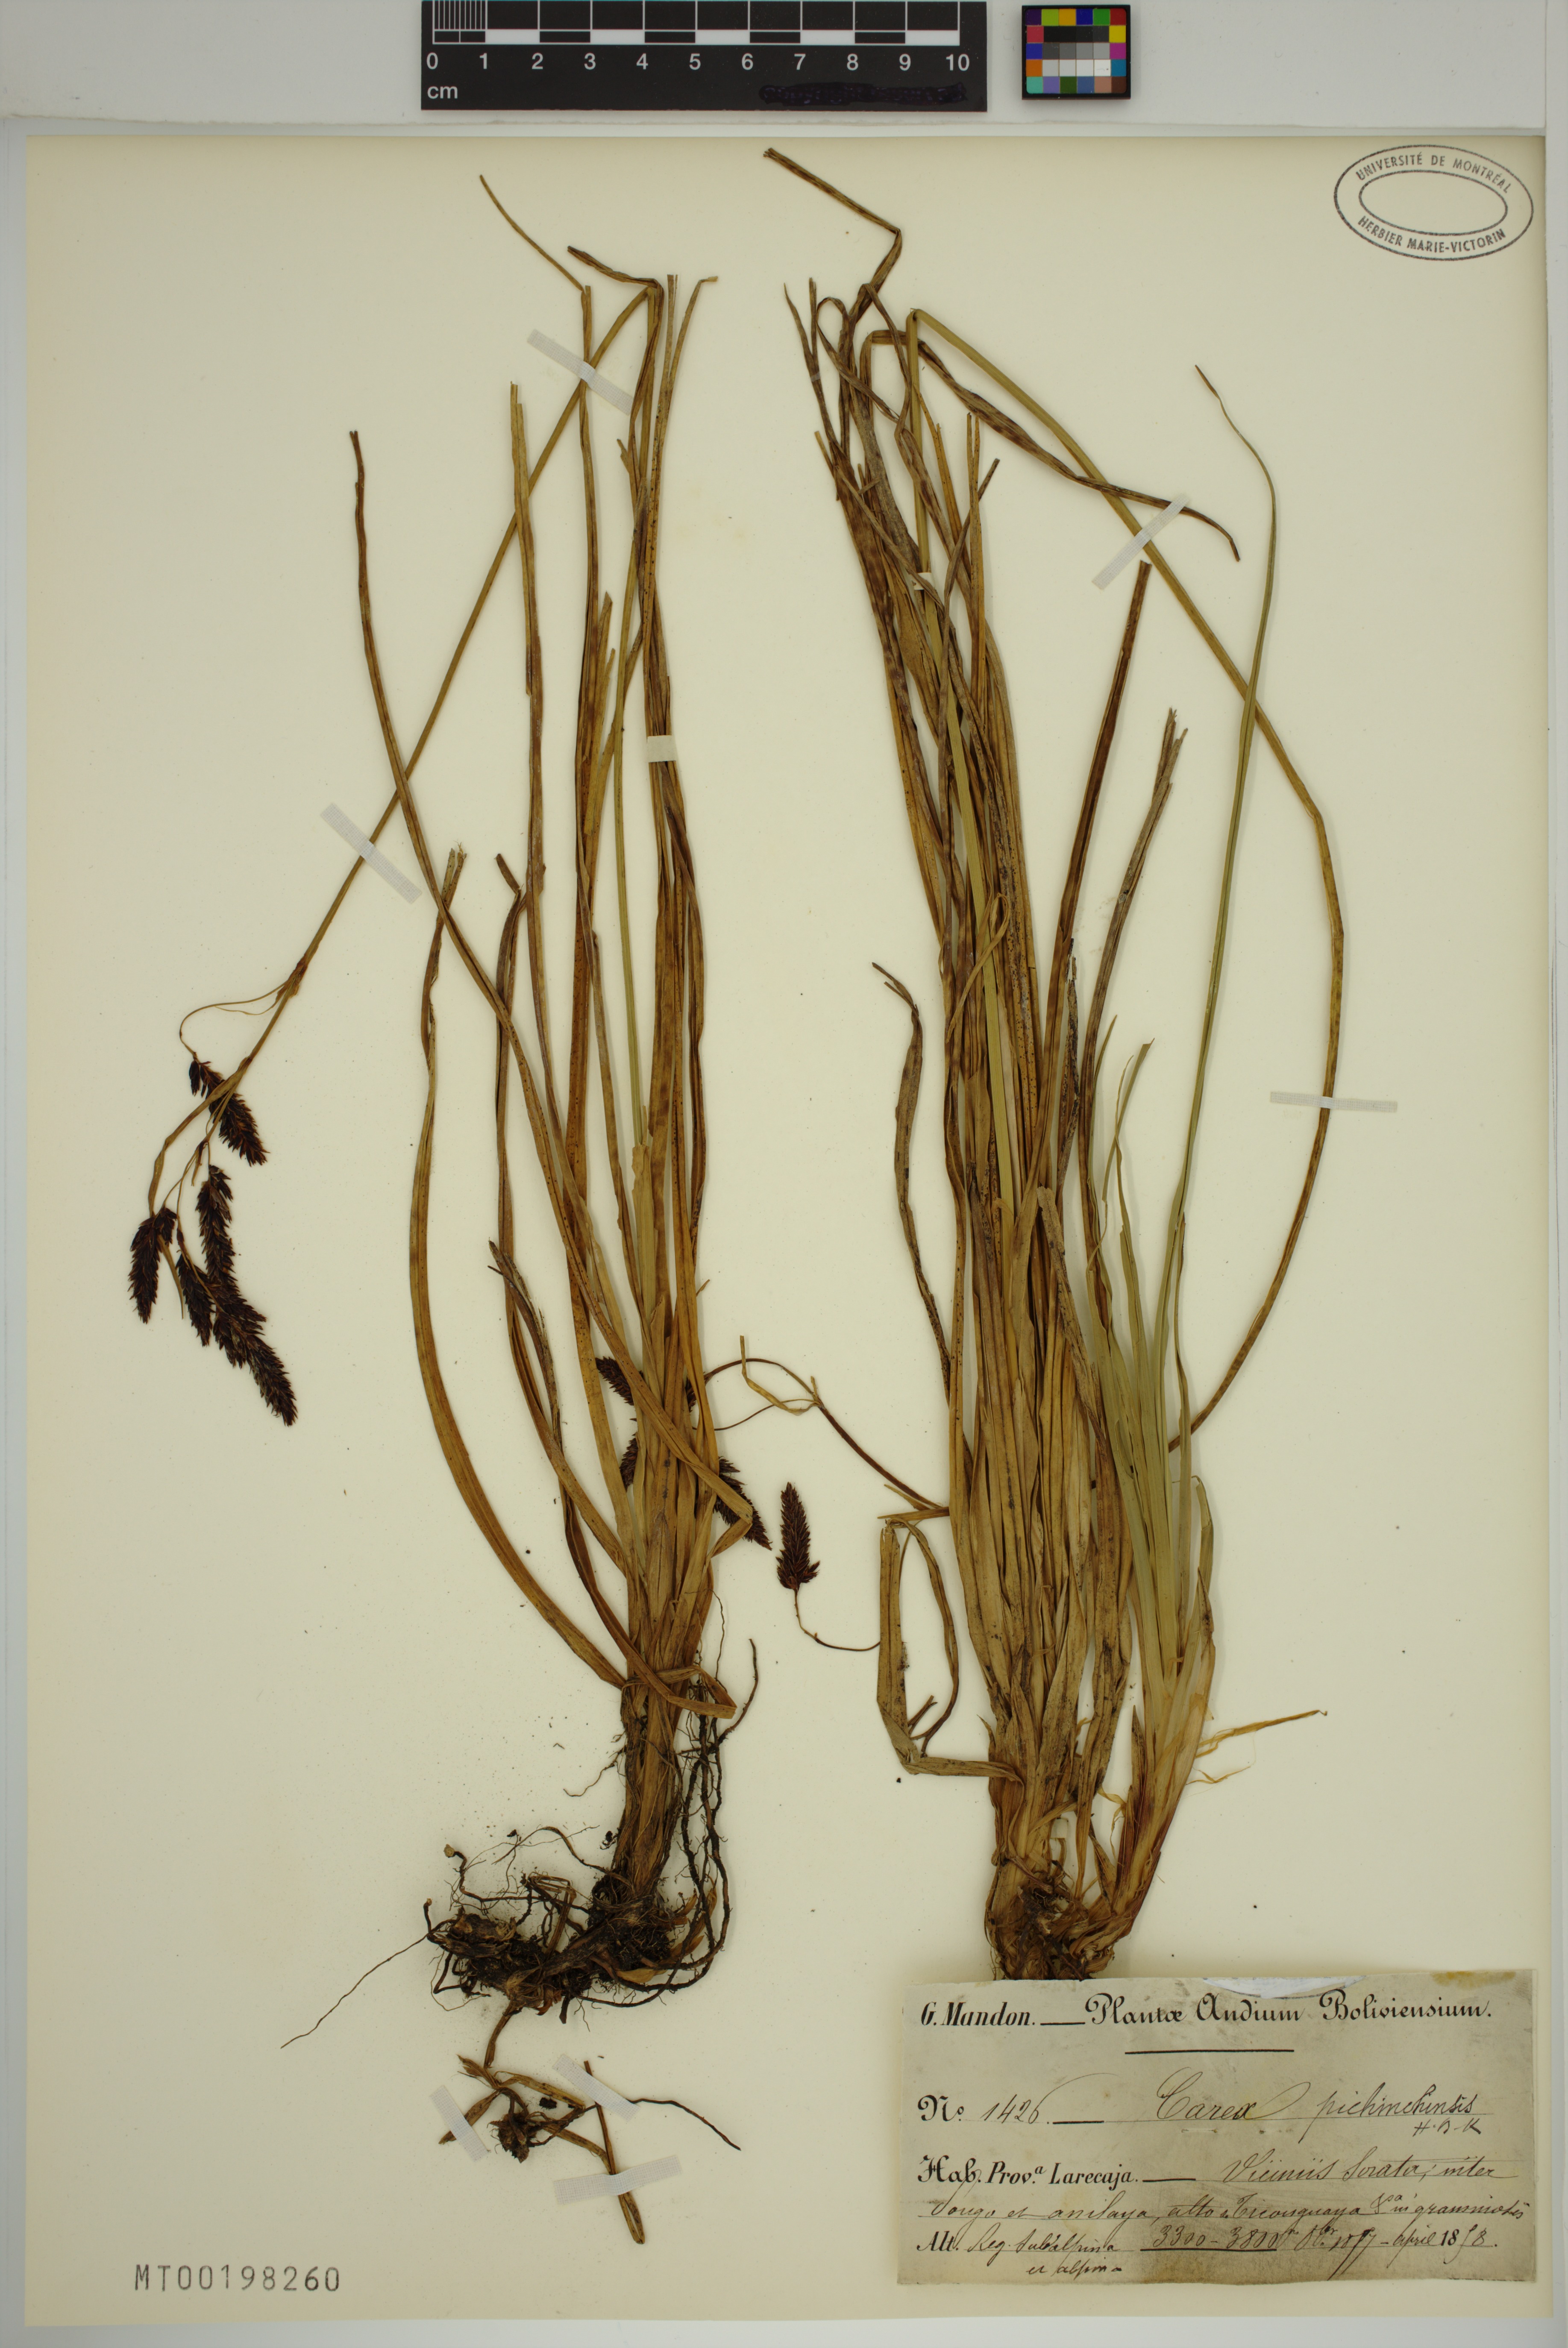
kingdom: Plantae
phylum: Tracheophyta
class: Liliopsida
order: Poales
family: Cyperaceae
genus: Carex
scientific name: Carex pichinchensis
